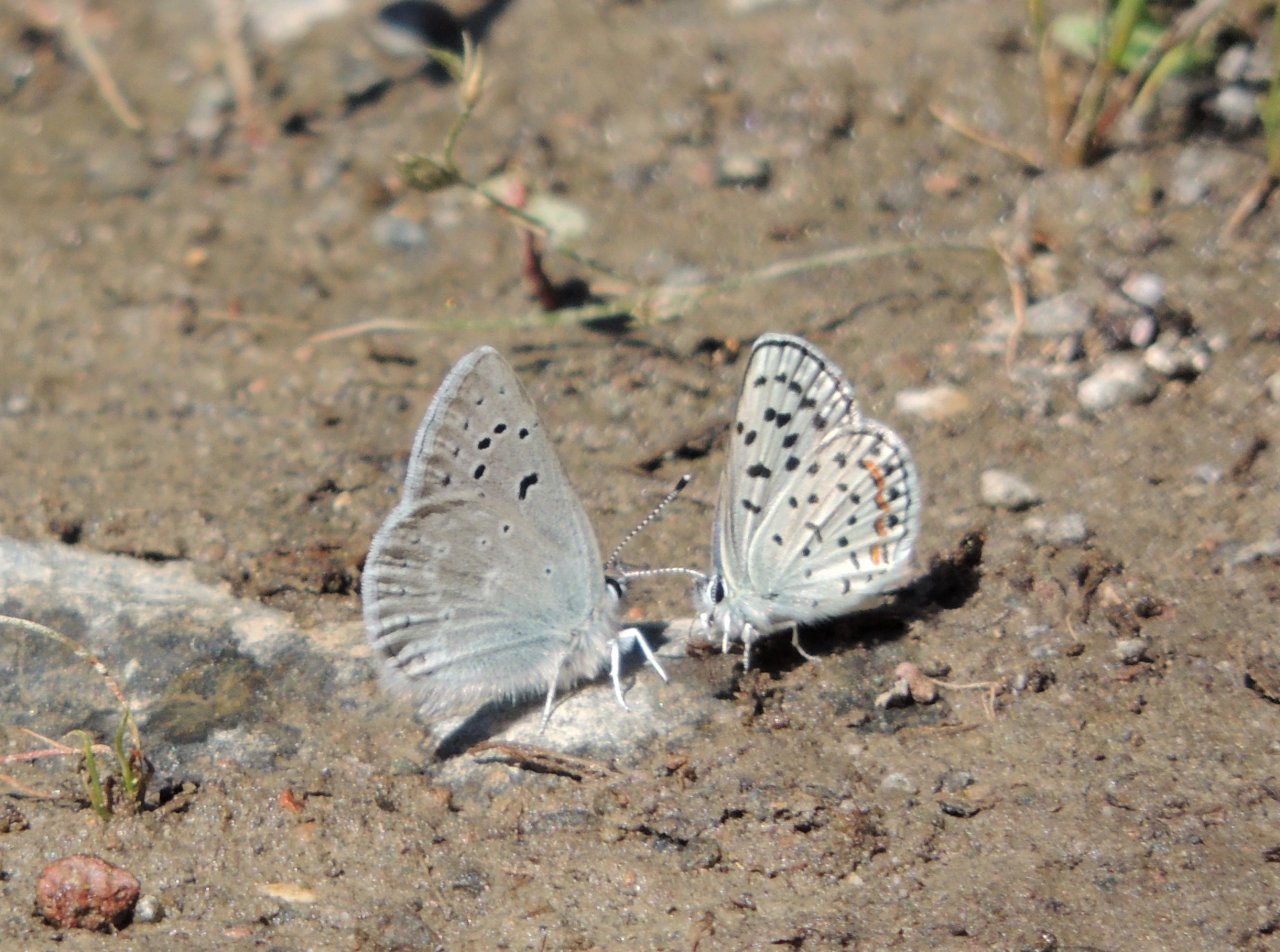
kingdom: Animalia
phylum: Arthropoda
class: Insecta
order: Lepidoptera
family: Lycaenidae
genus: Icaricia
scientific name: Icaricia icarioides
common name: Boisduval's Blue
